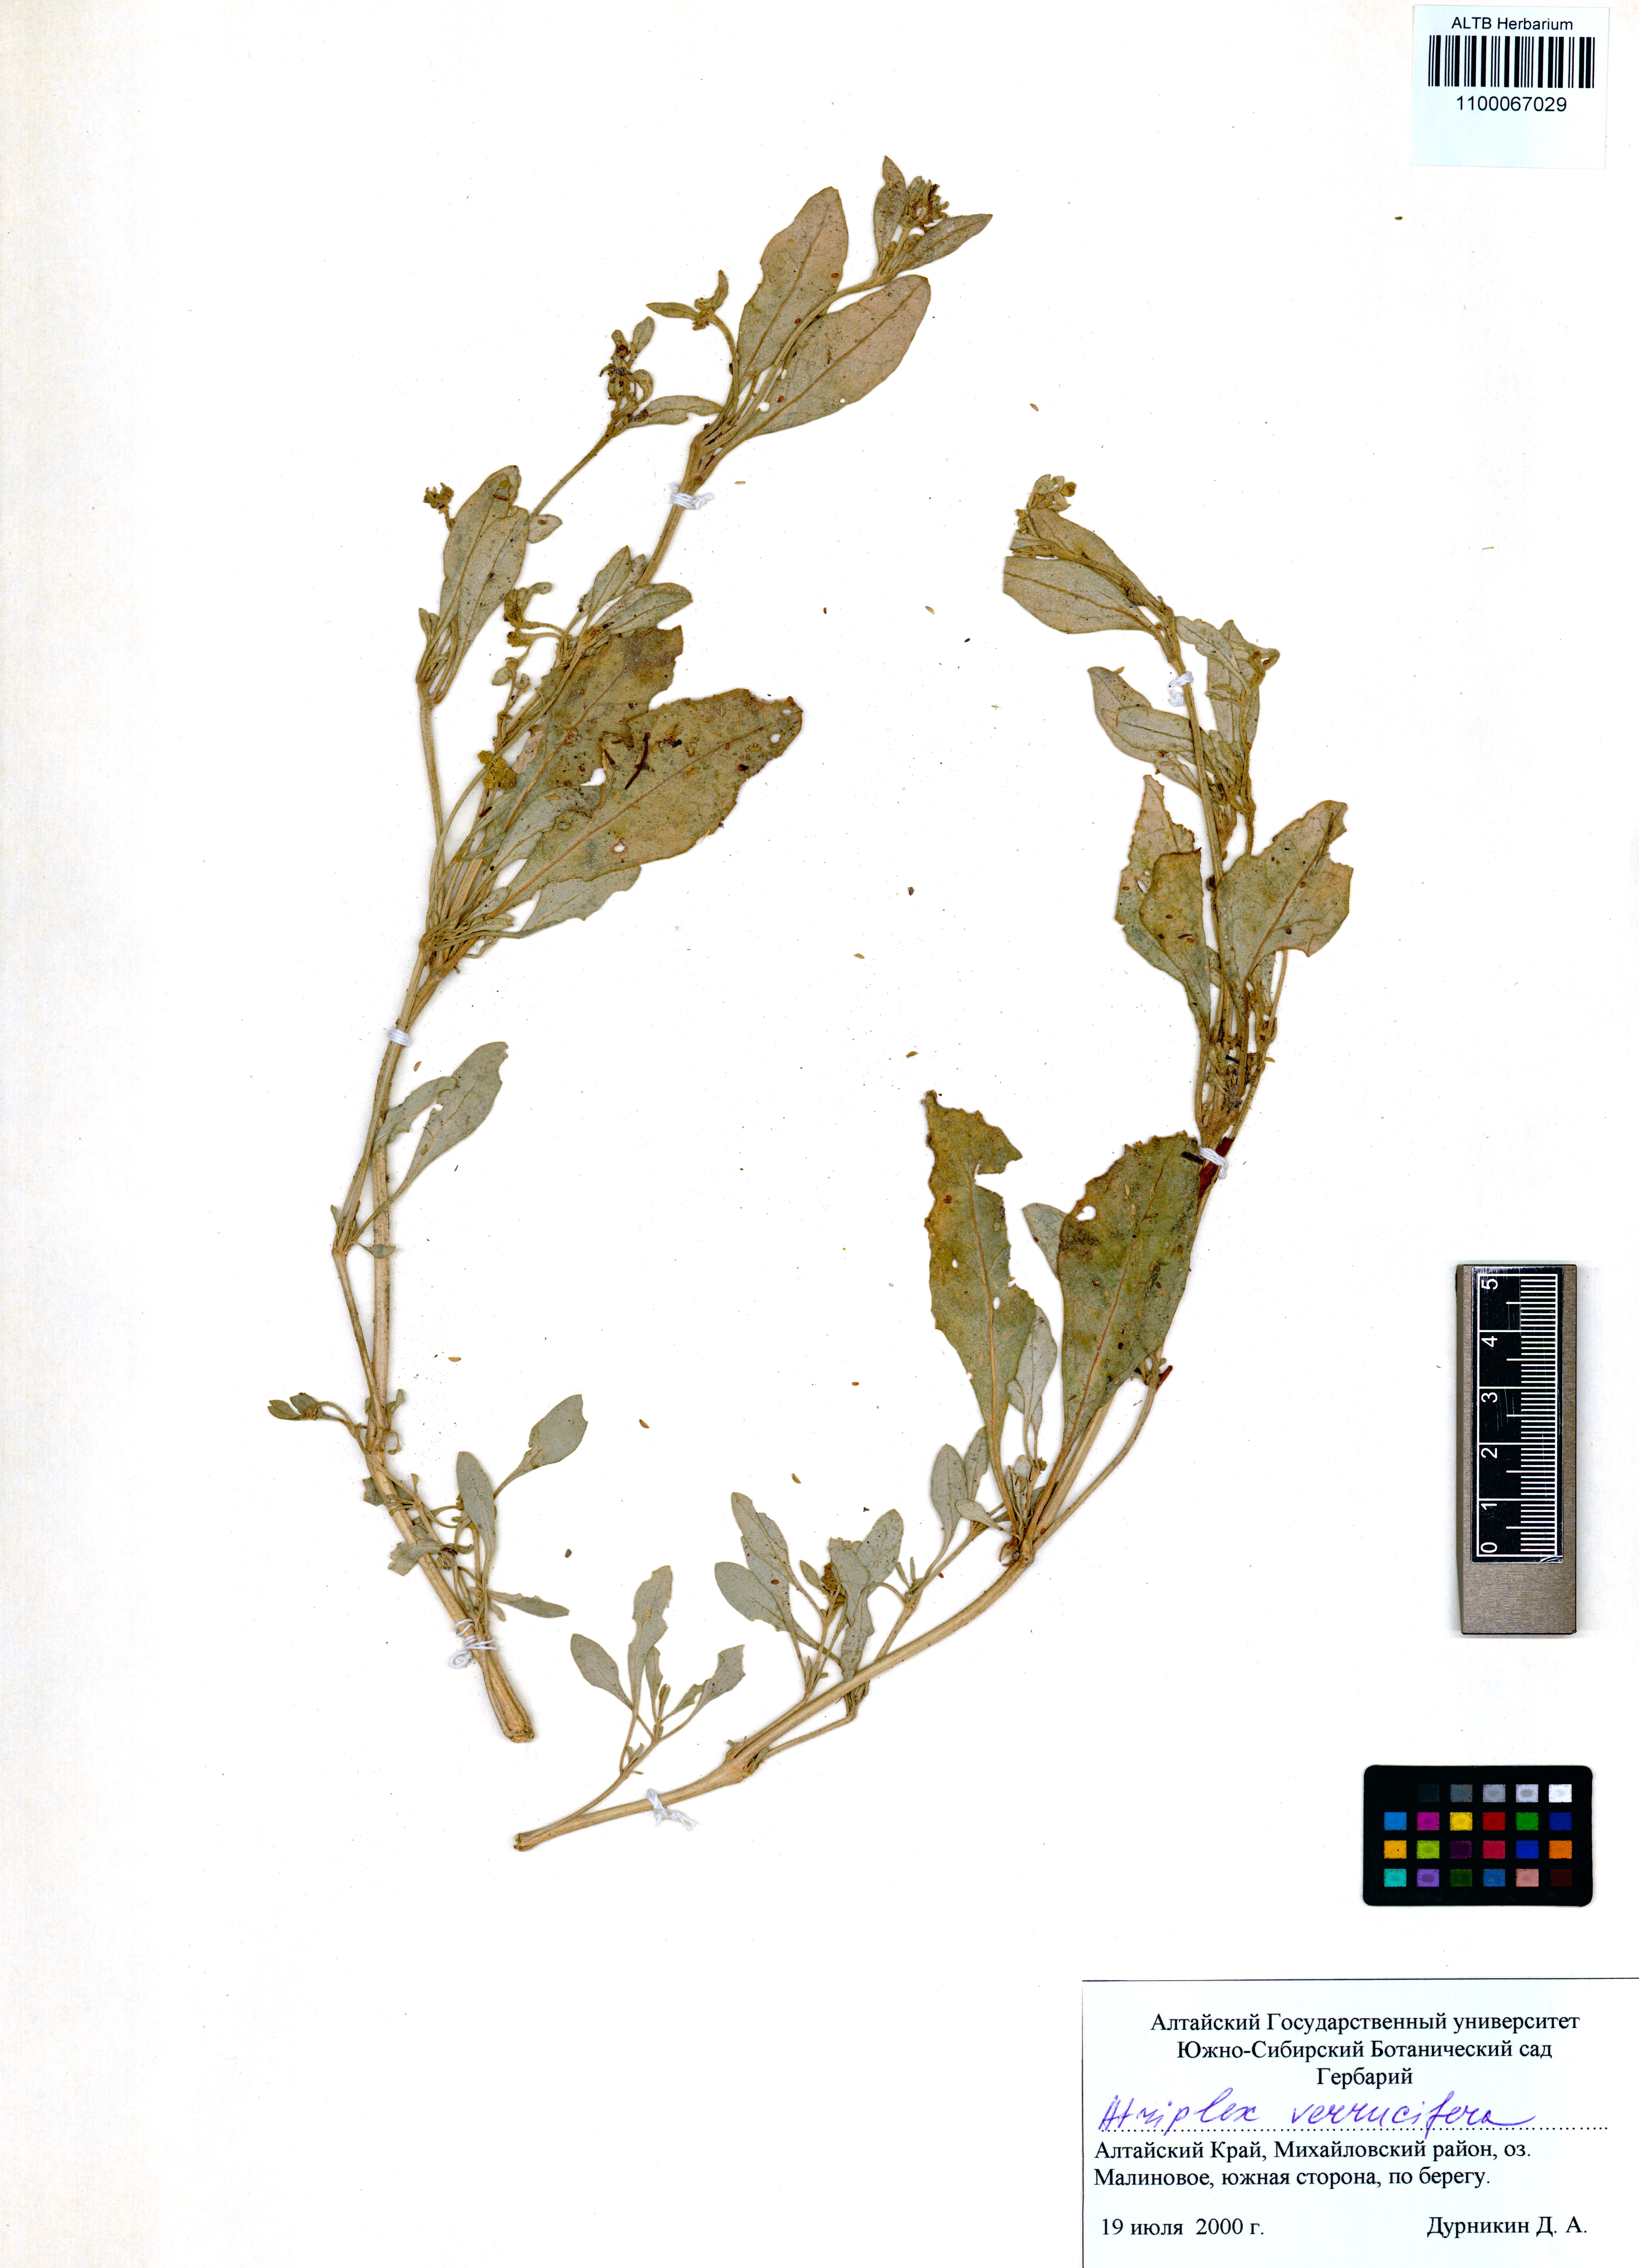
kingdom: Plantae
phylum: Tracheophyta
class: Magnoliopsida
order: Caryophyllales
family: Amaranthaceae
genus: Halimione
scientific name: Halimione verrucifera
